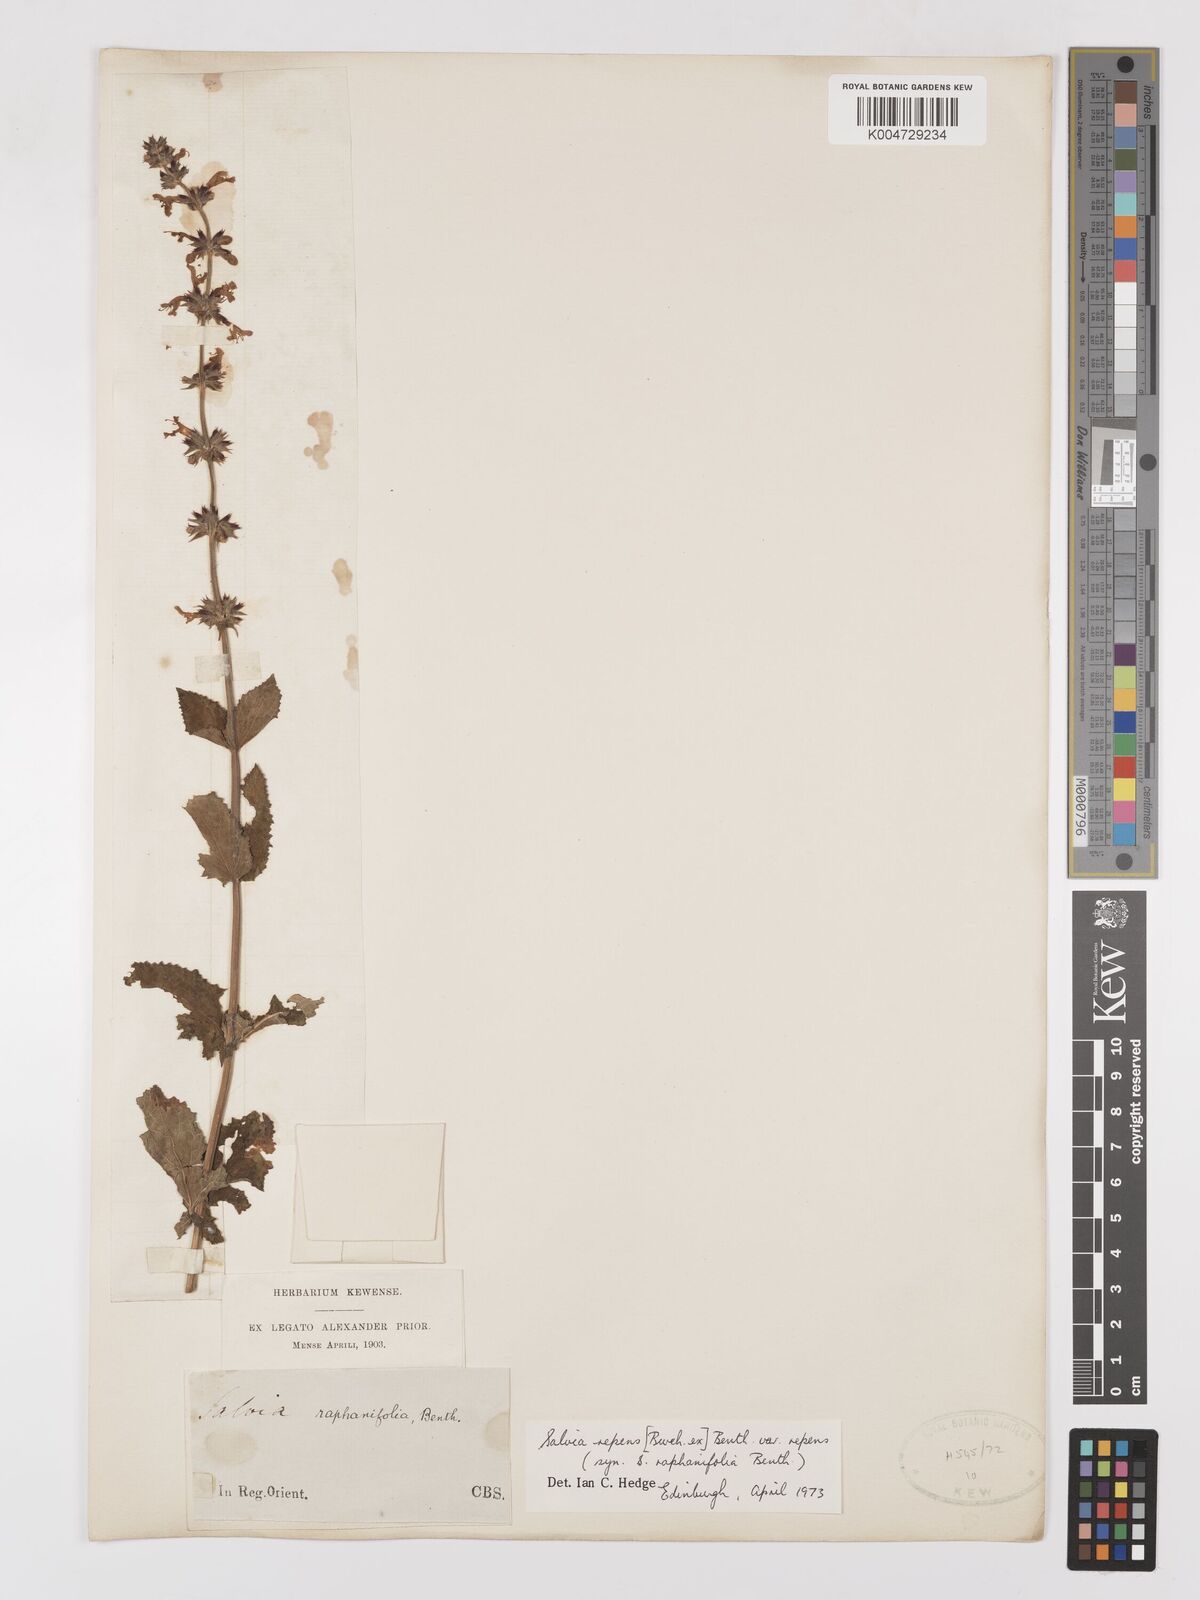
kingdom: Plantae
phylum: Tracheophyta
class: Magnoliopsida
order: Lamiales
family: Lamiaceae
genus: Salvia
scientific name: Salvia repens
